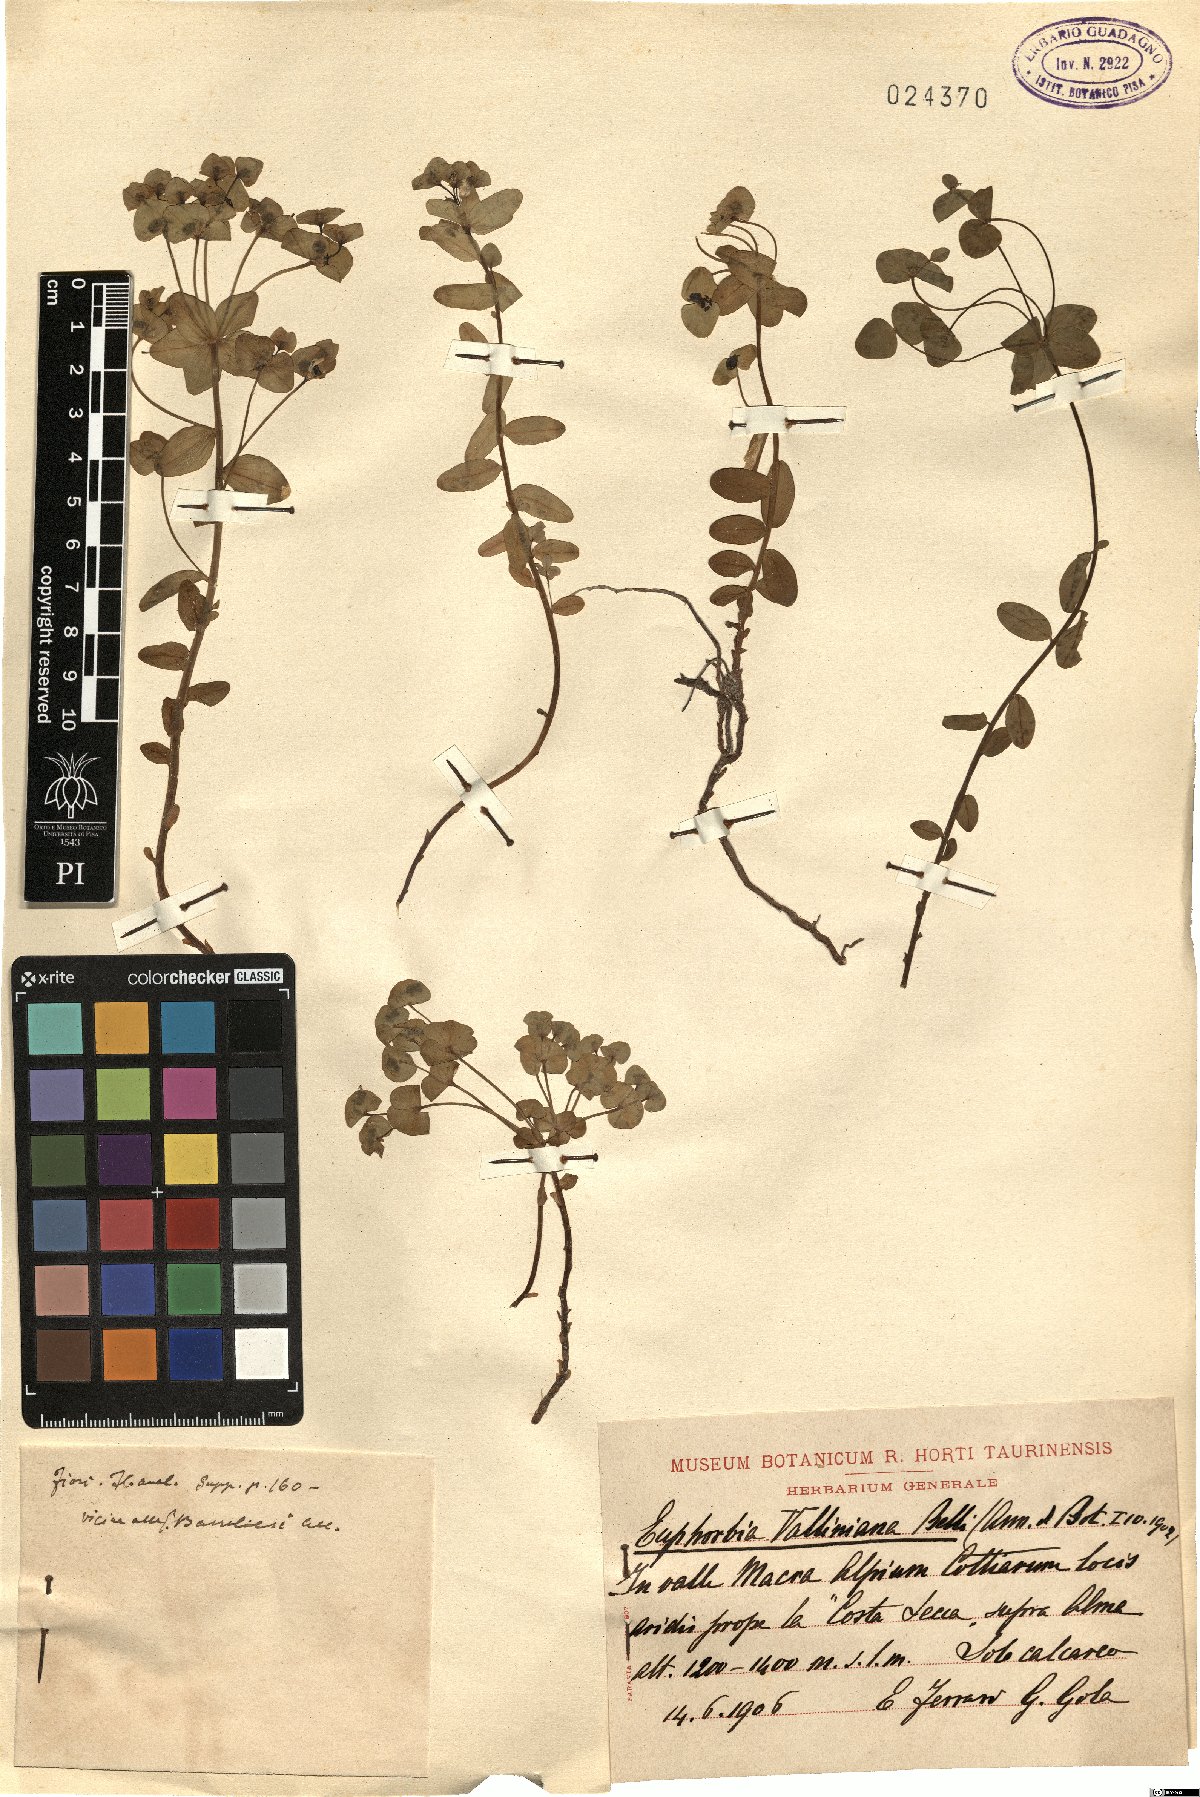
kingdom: Plantae
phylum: Tracheophyta
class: Magnoliopsida
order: Malpighiales
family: Euphorbiaceae
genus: Euphorbia
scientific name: Euphorbia variabilis
